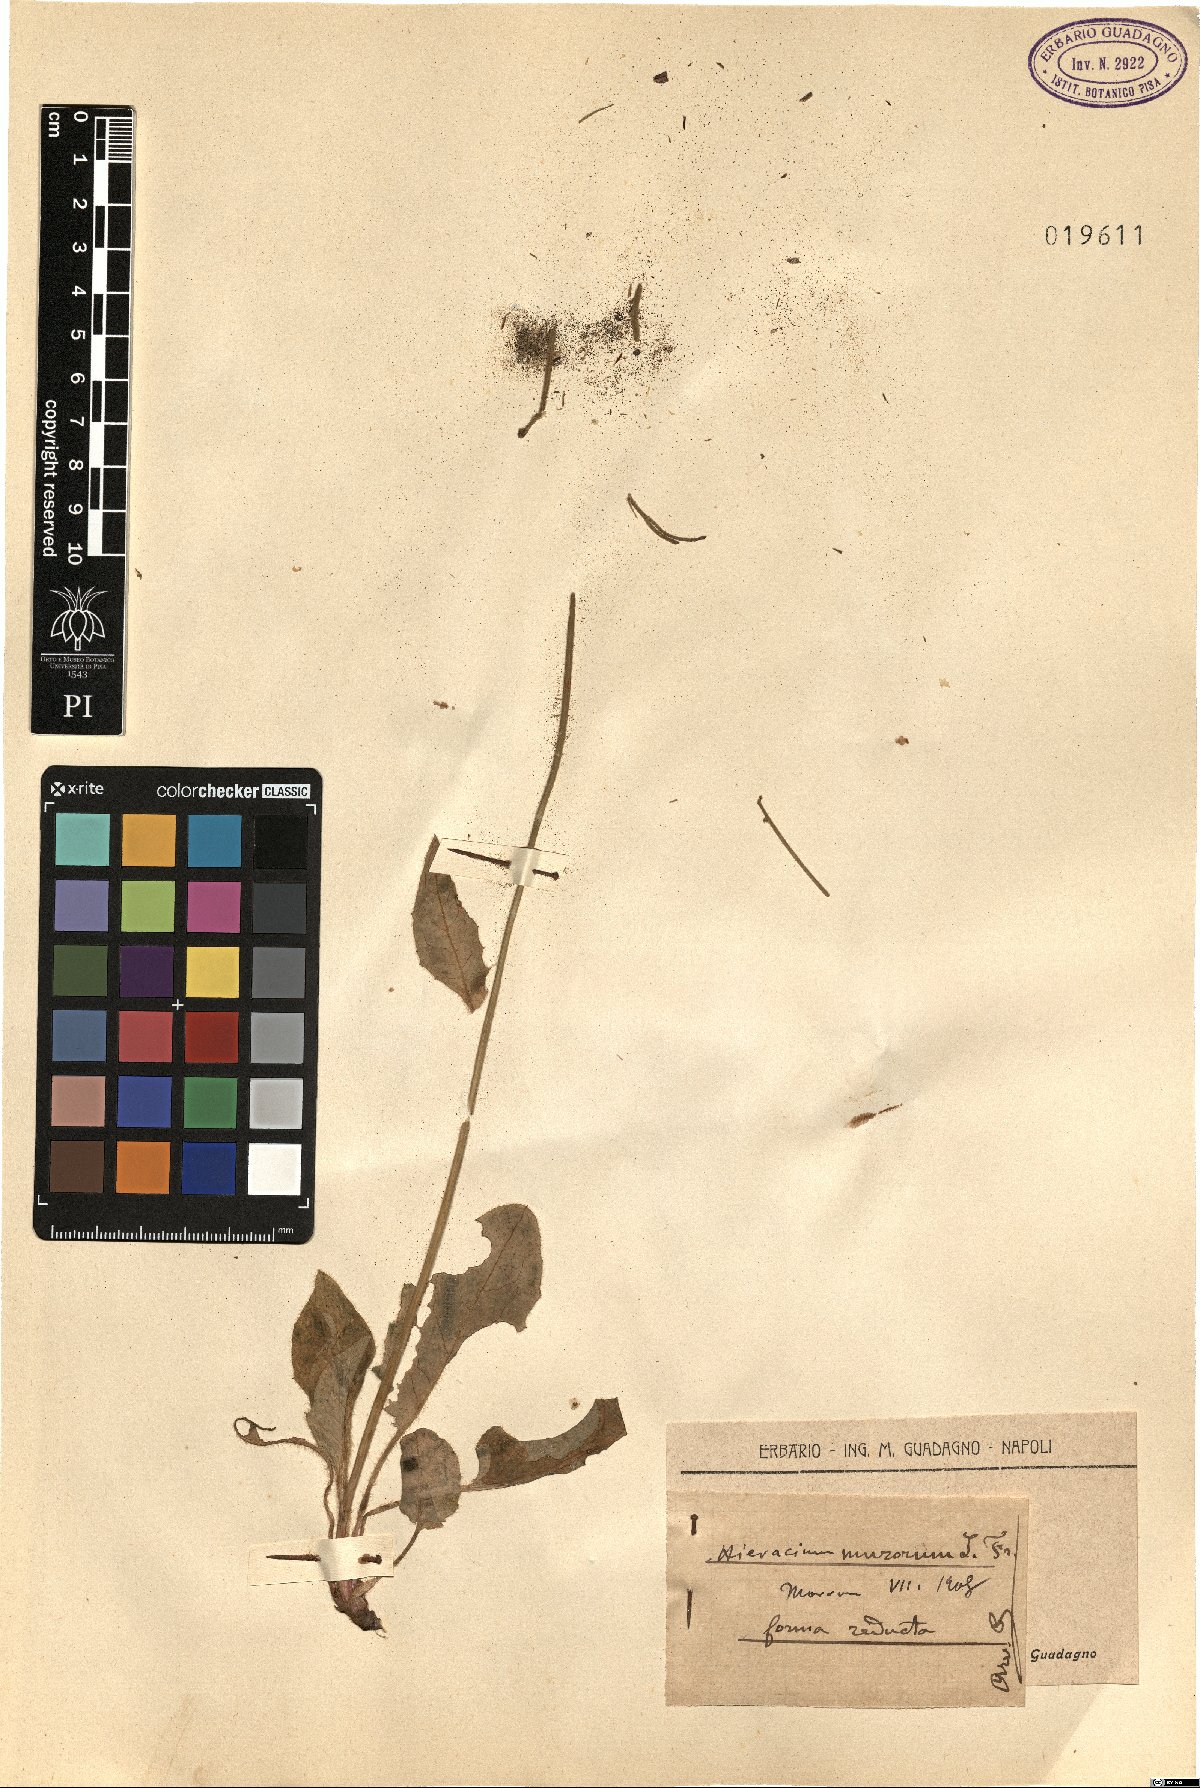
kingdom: Plantae
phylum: Tracheophyta
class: Magnoliopsida
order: Asterales
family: Asteraceae
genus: Hieracium
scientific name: Hieracium murorum
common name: Wall hawkweed
